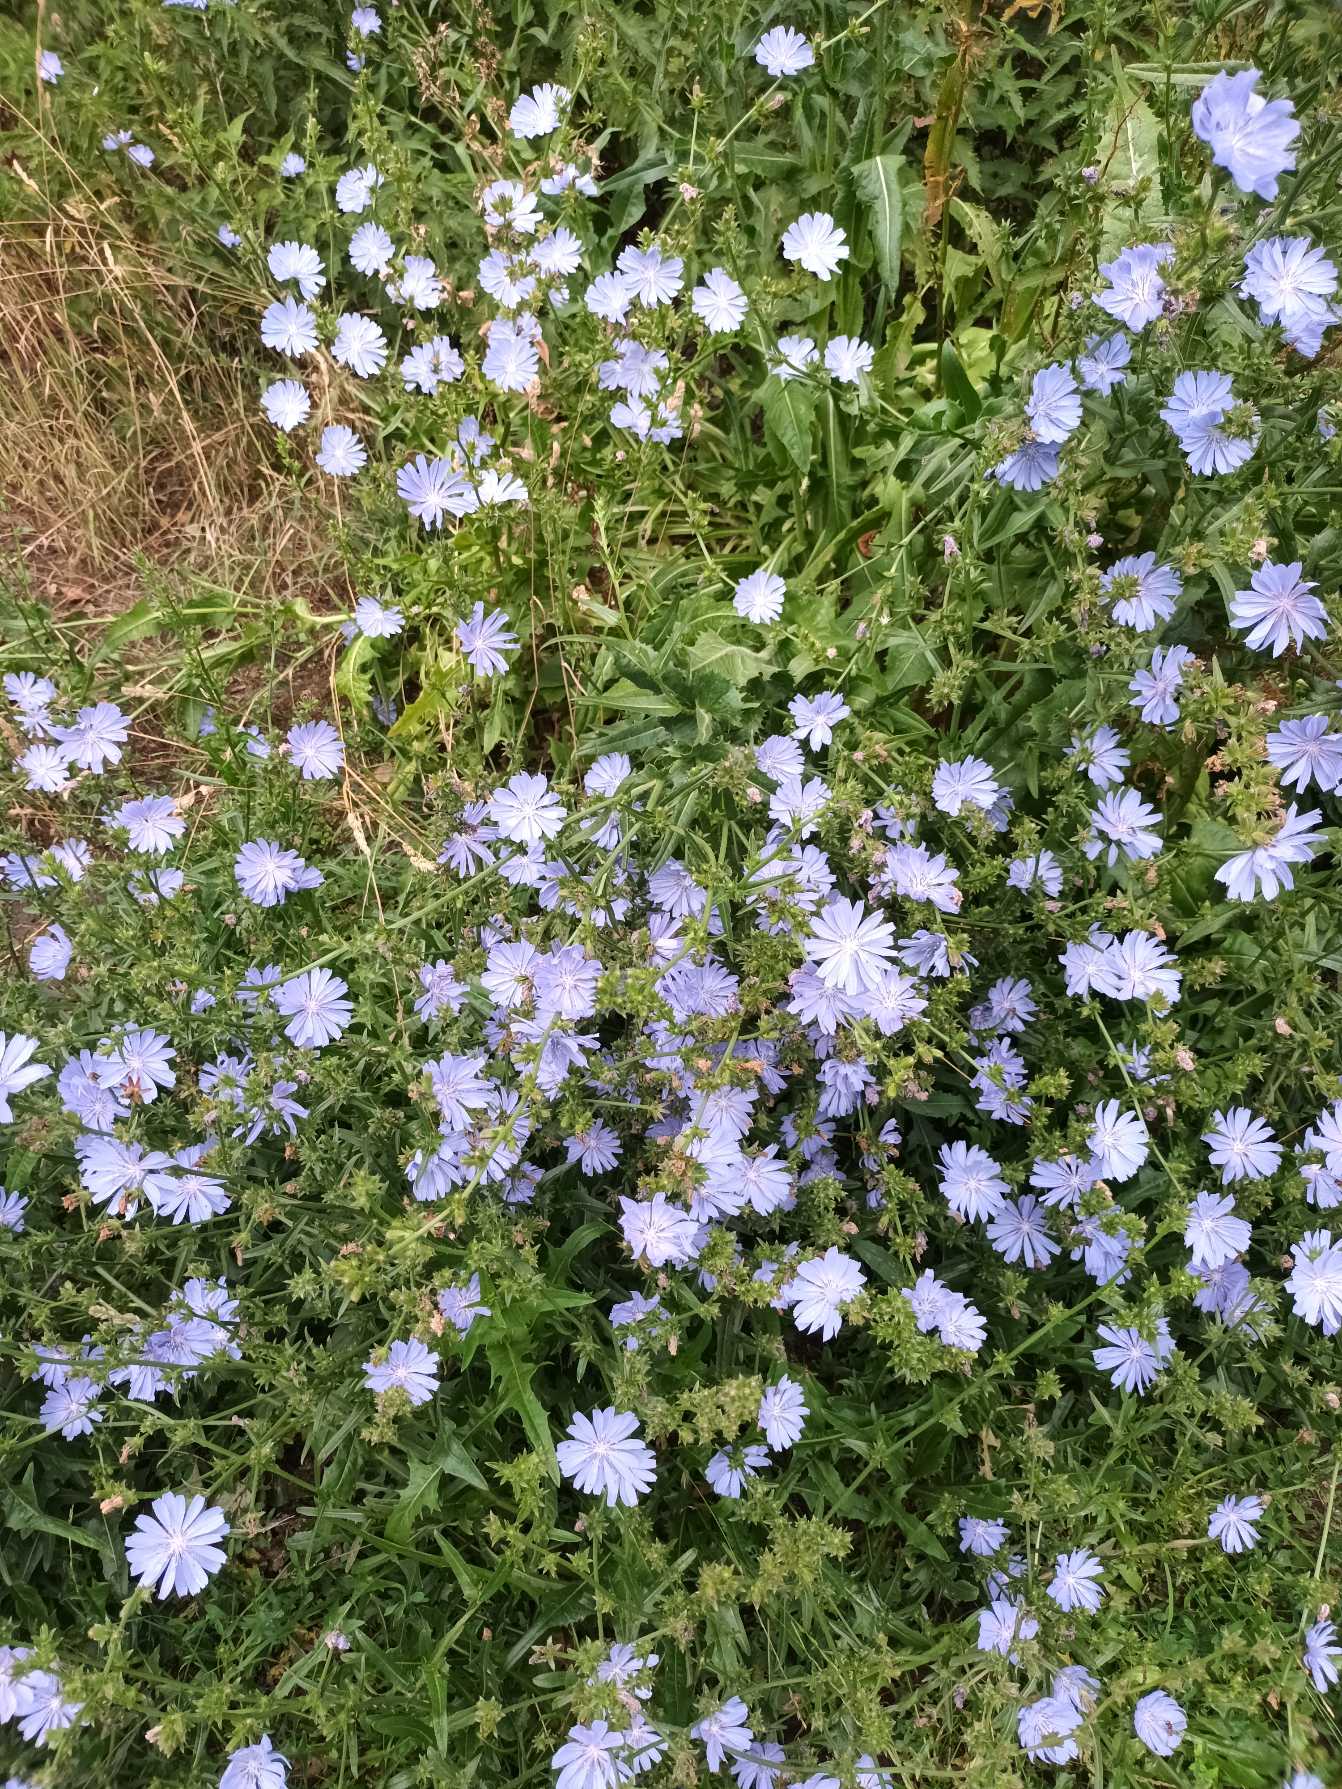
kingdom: Plantae
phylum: Tracheophyta
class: Magnoliopsida
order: Asterales
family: Asteraceae
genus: Cichorium
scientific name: Cichorium intybus
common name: Cikorie
